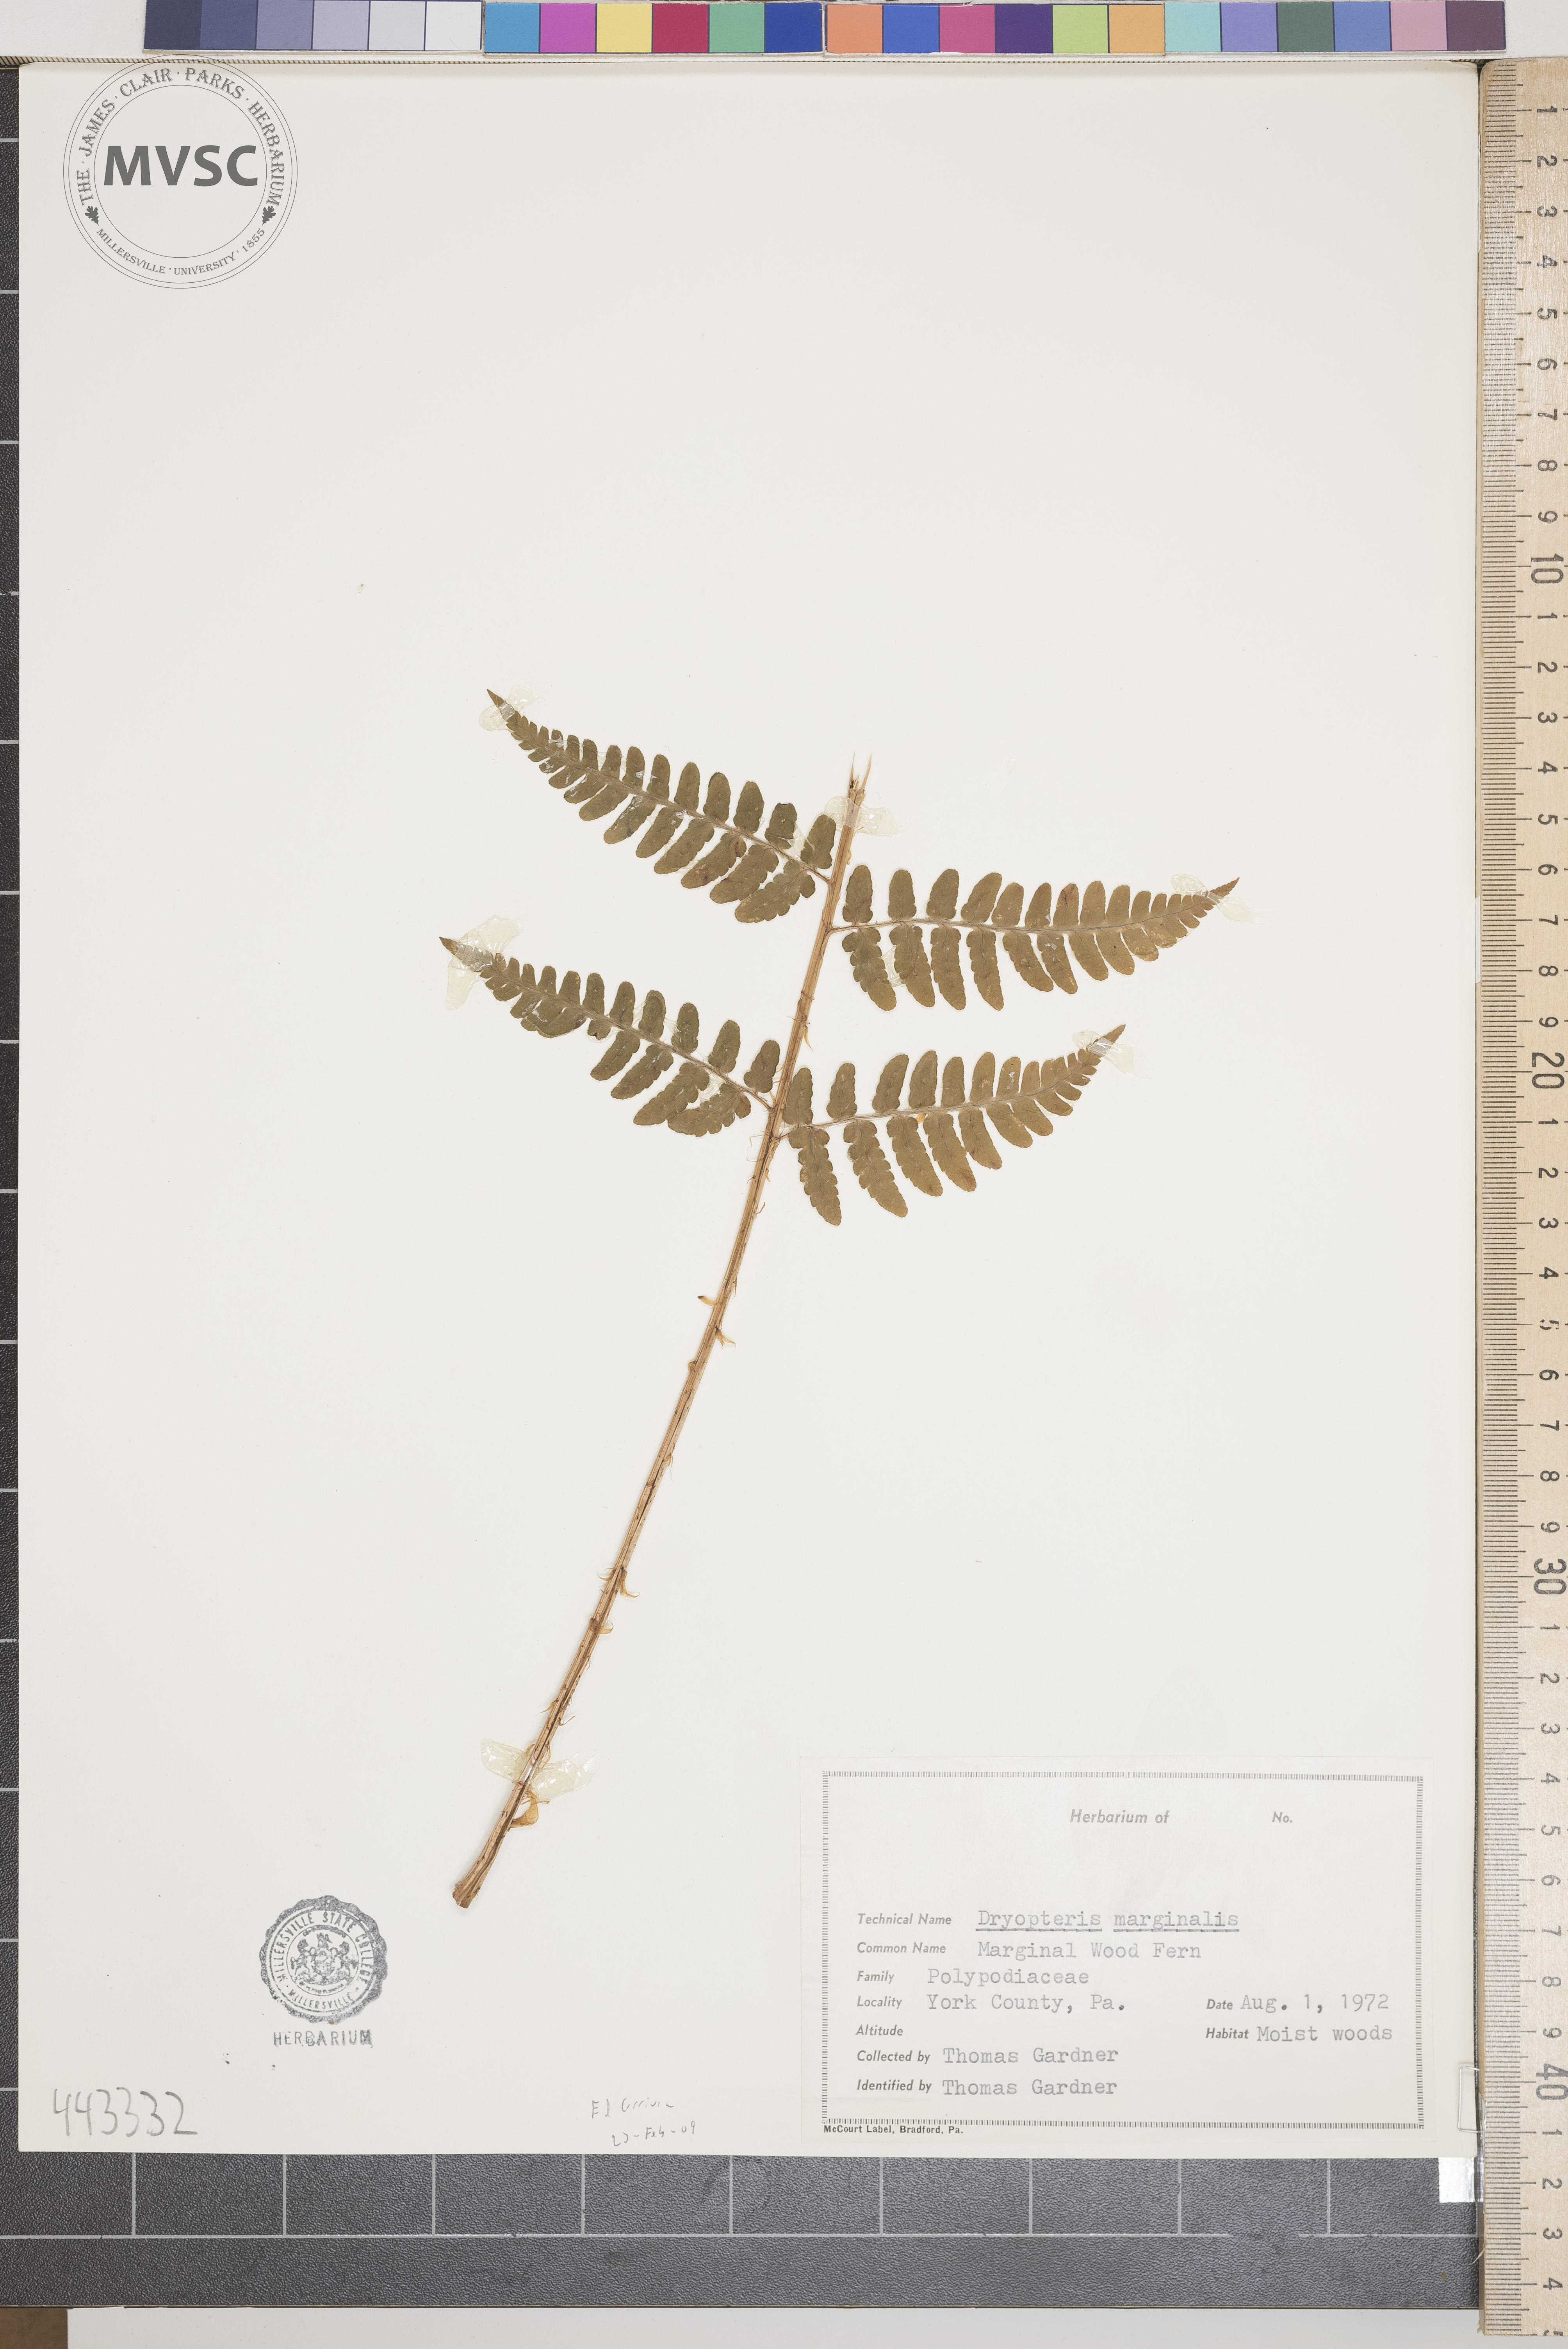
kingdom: Plantae
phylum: Tracheophyta
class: Polypodiopsida
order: Polypodiales
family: Dryopteridaceae
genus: Dryopteris
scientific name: Dryopteris marginalis
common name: Marginal woodfern
